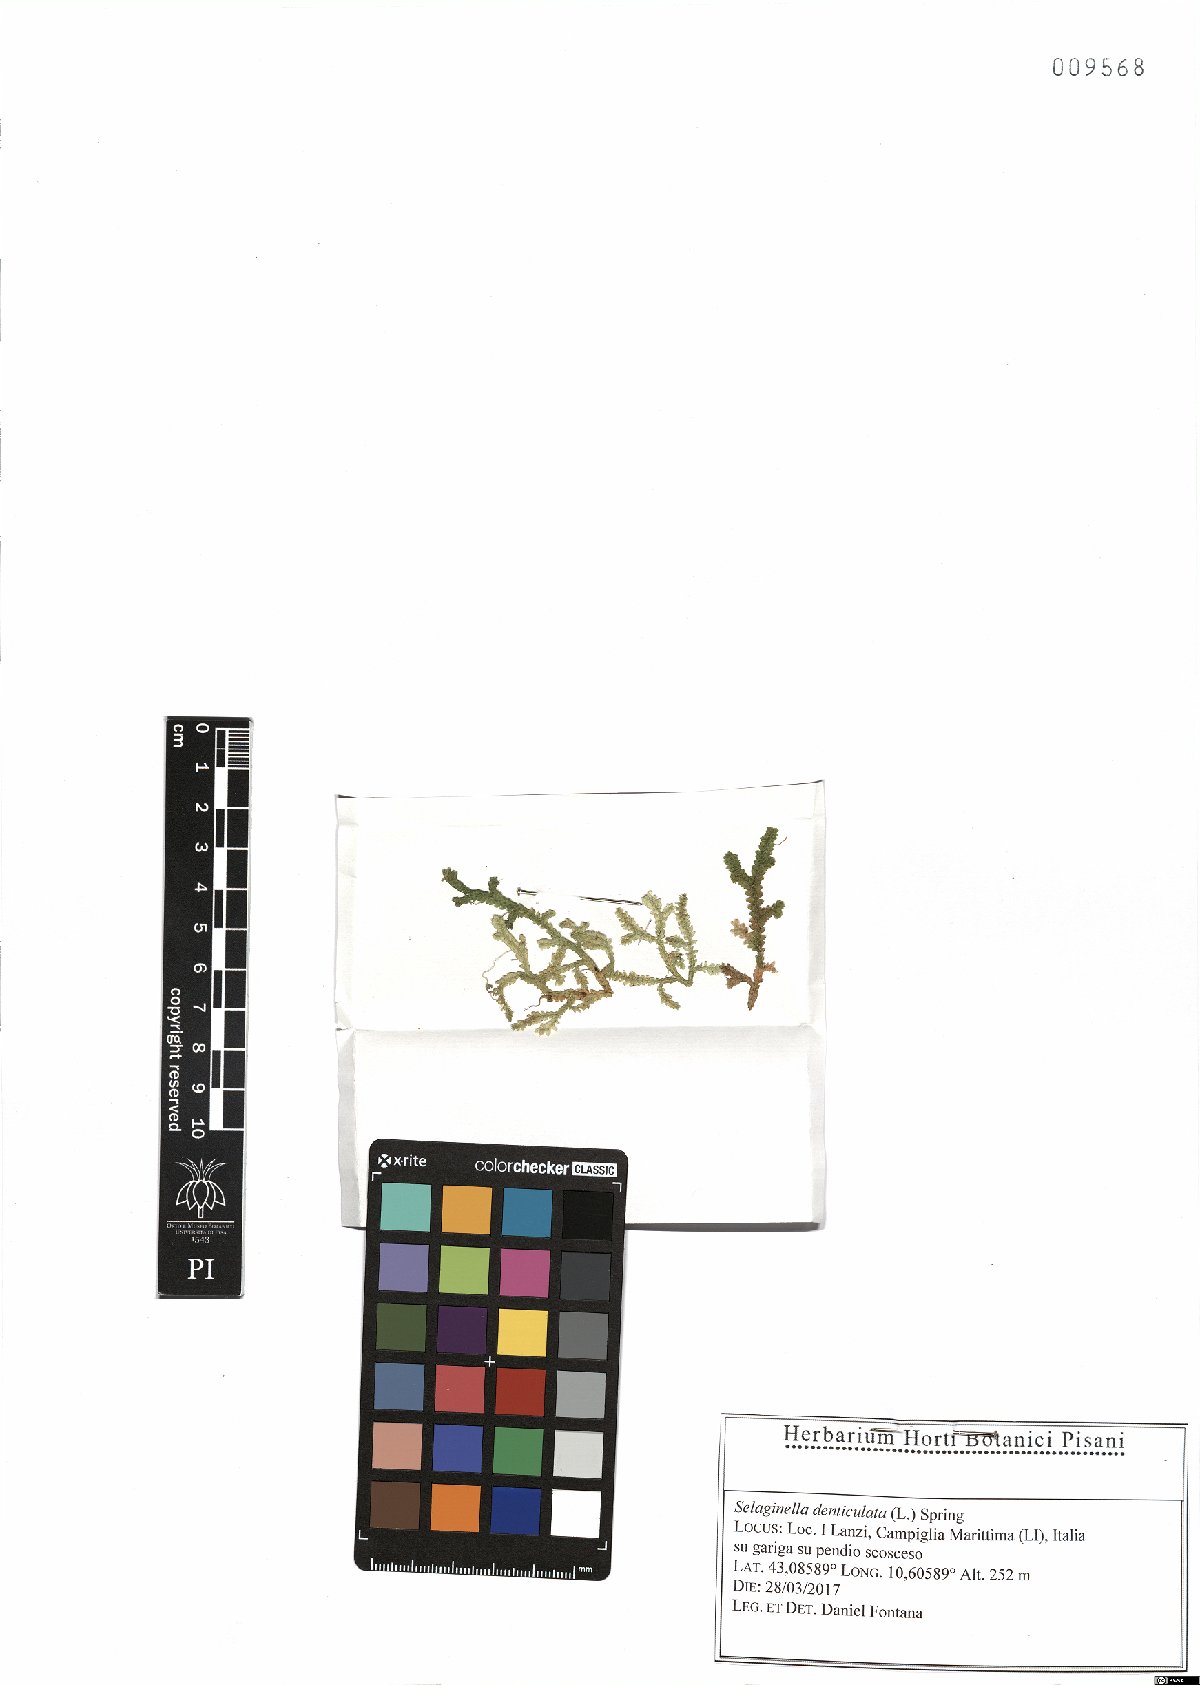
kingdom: Plantae
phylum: Tracheophyta
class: Lycopodiopsida
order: Selaginellales
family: Selaginellaceae
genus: Selaginella
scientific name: Selaginella denticulata
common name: Toothed-leaved clubmoss
